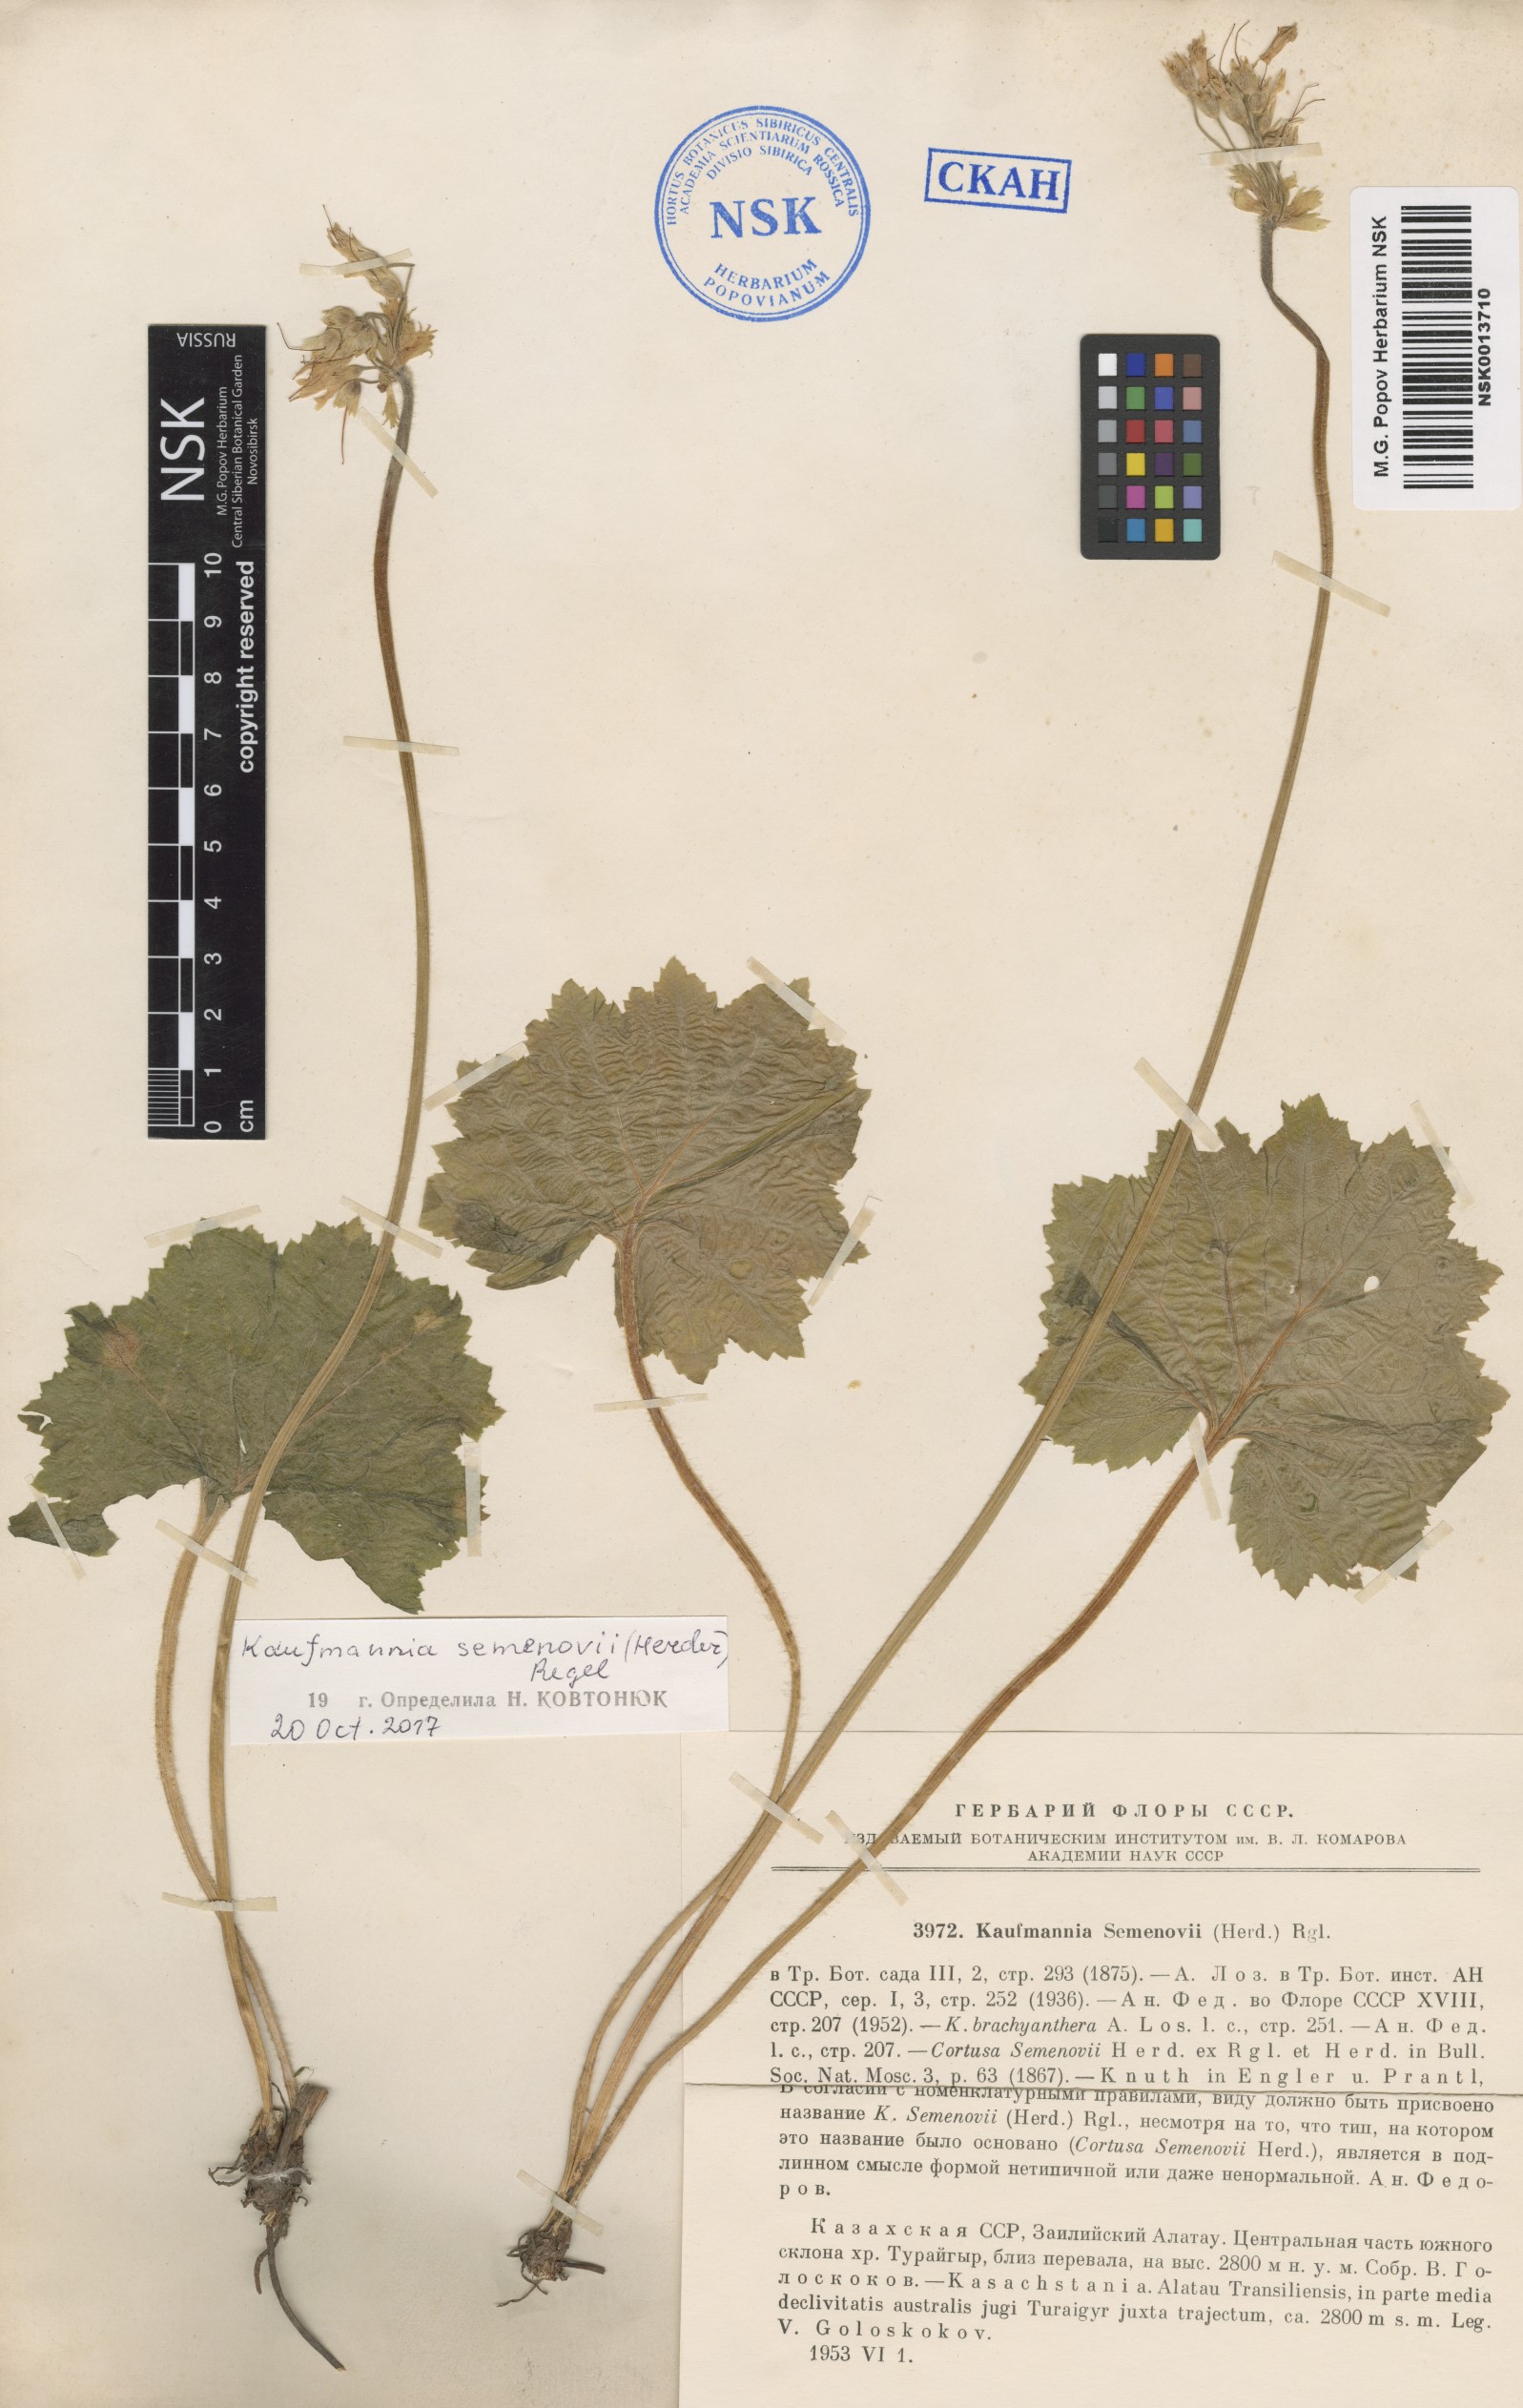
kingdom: Plantae
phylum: Tracheophyta
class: Magnoliopsida
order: Ericales
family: Primulaceae
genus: Kaufmannia
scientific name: Kaufmannia semenovii
